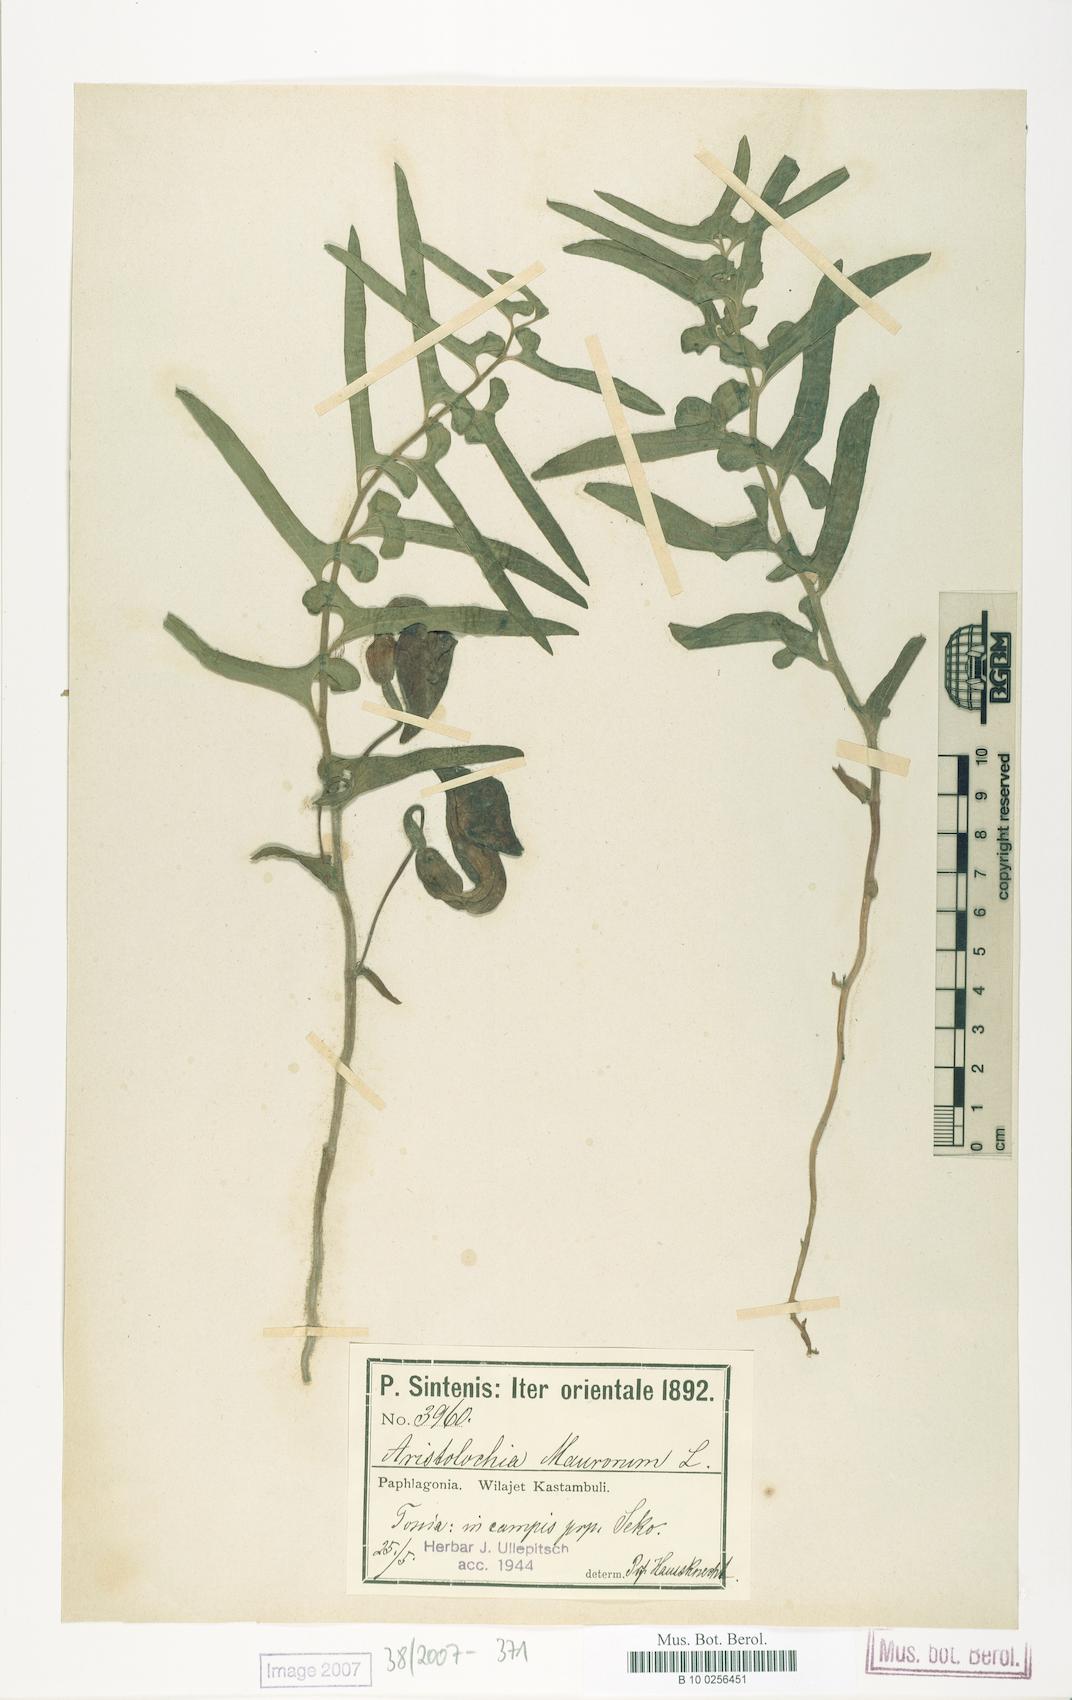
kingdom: Plantae
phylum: Tracheophyta
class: Magnoliopsida
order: Piperales
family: Aristolochiaceae
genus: Aristolochia
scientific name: Aristolochia maurorum
